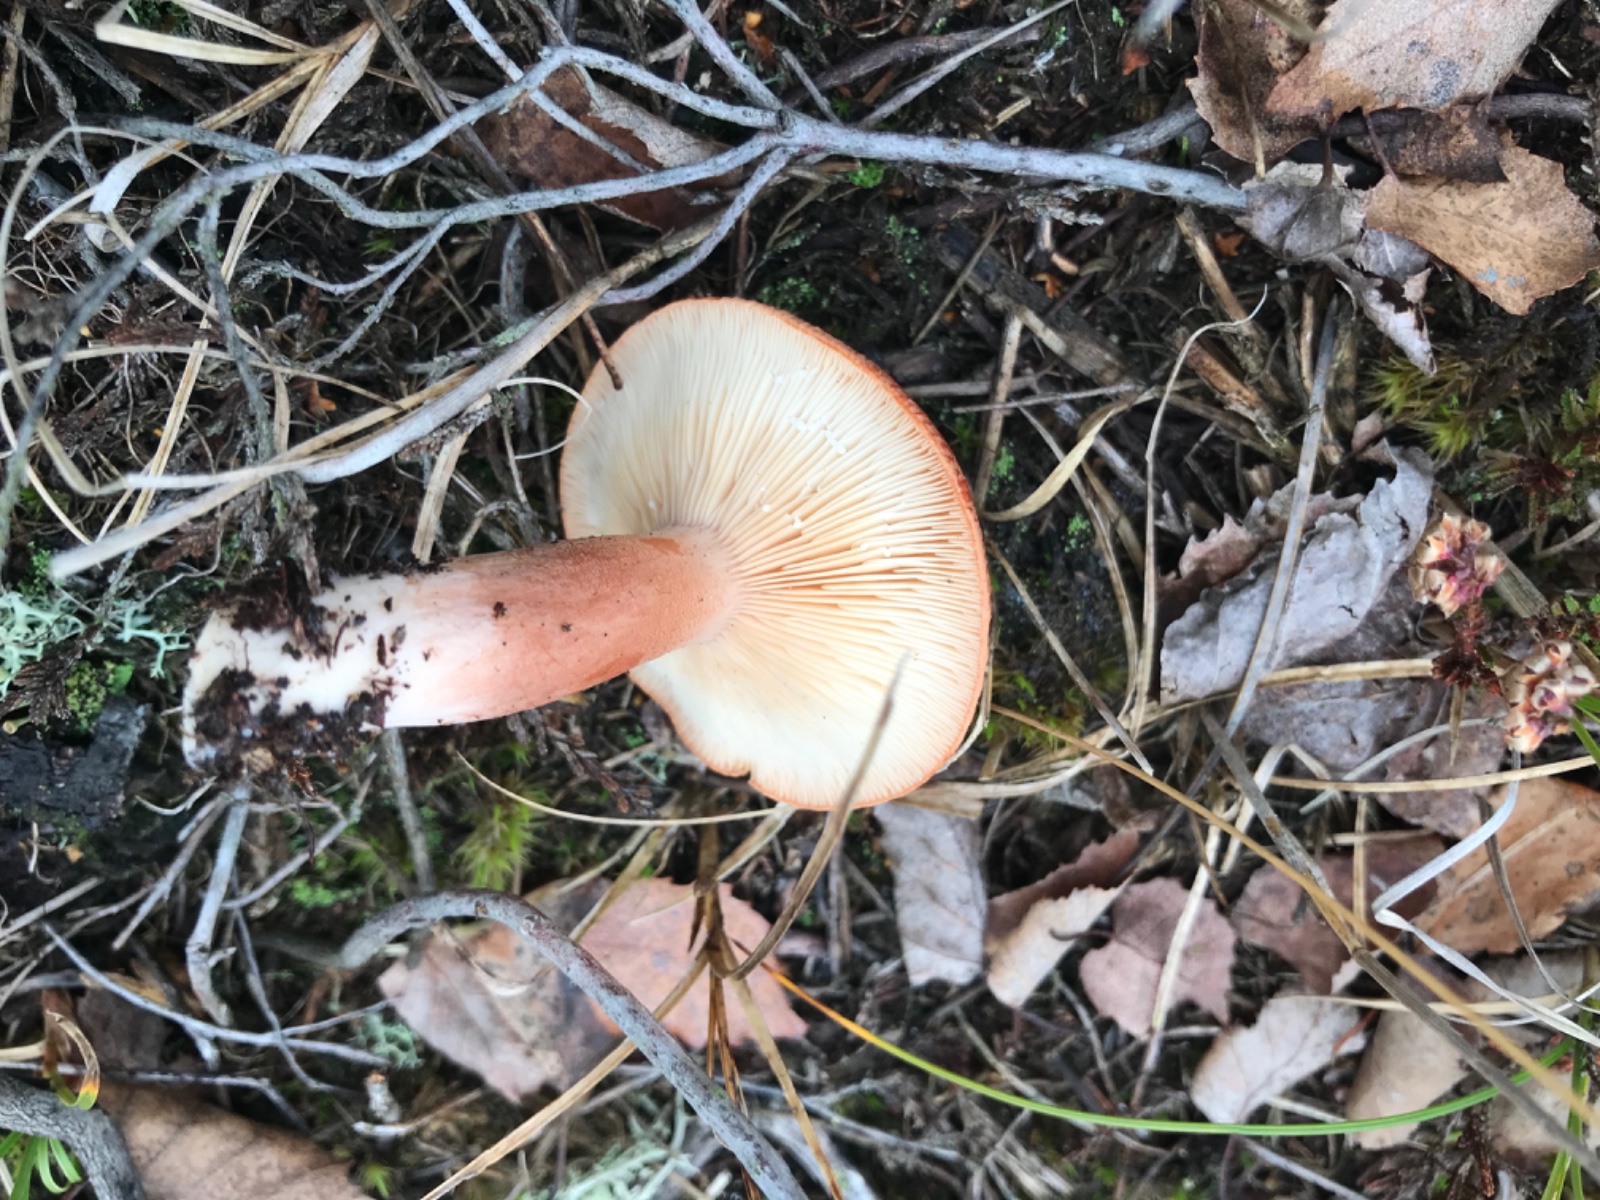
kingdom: Fungi
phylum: Basidiomycota
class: Agaricomycetes
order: Russulales
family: Russulaceae
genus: Lactarius
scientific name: Lactarius rufus
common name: rødbrun mælkehat
